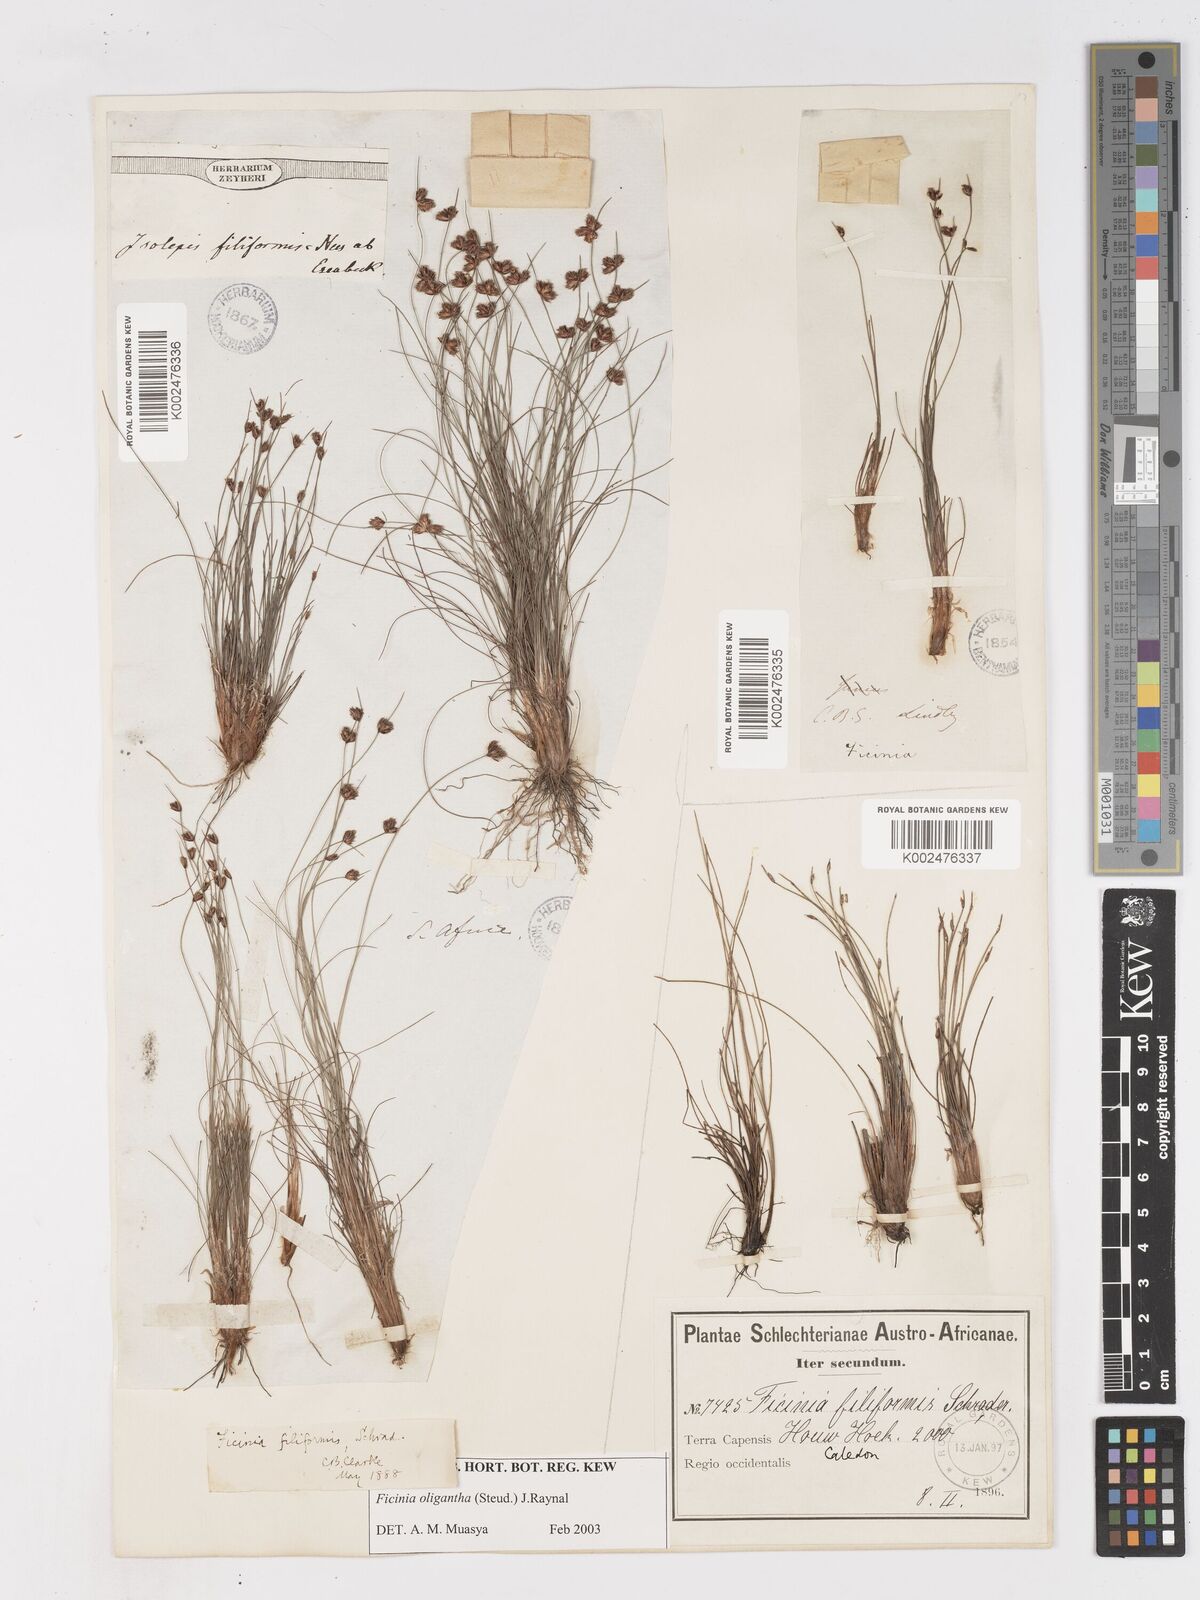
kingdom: Plantae
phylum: Tracheophyta
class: Liliopsida
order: Poales
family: Cyperaceae
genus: Ficinia
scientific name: Ficinia oligantha
